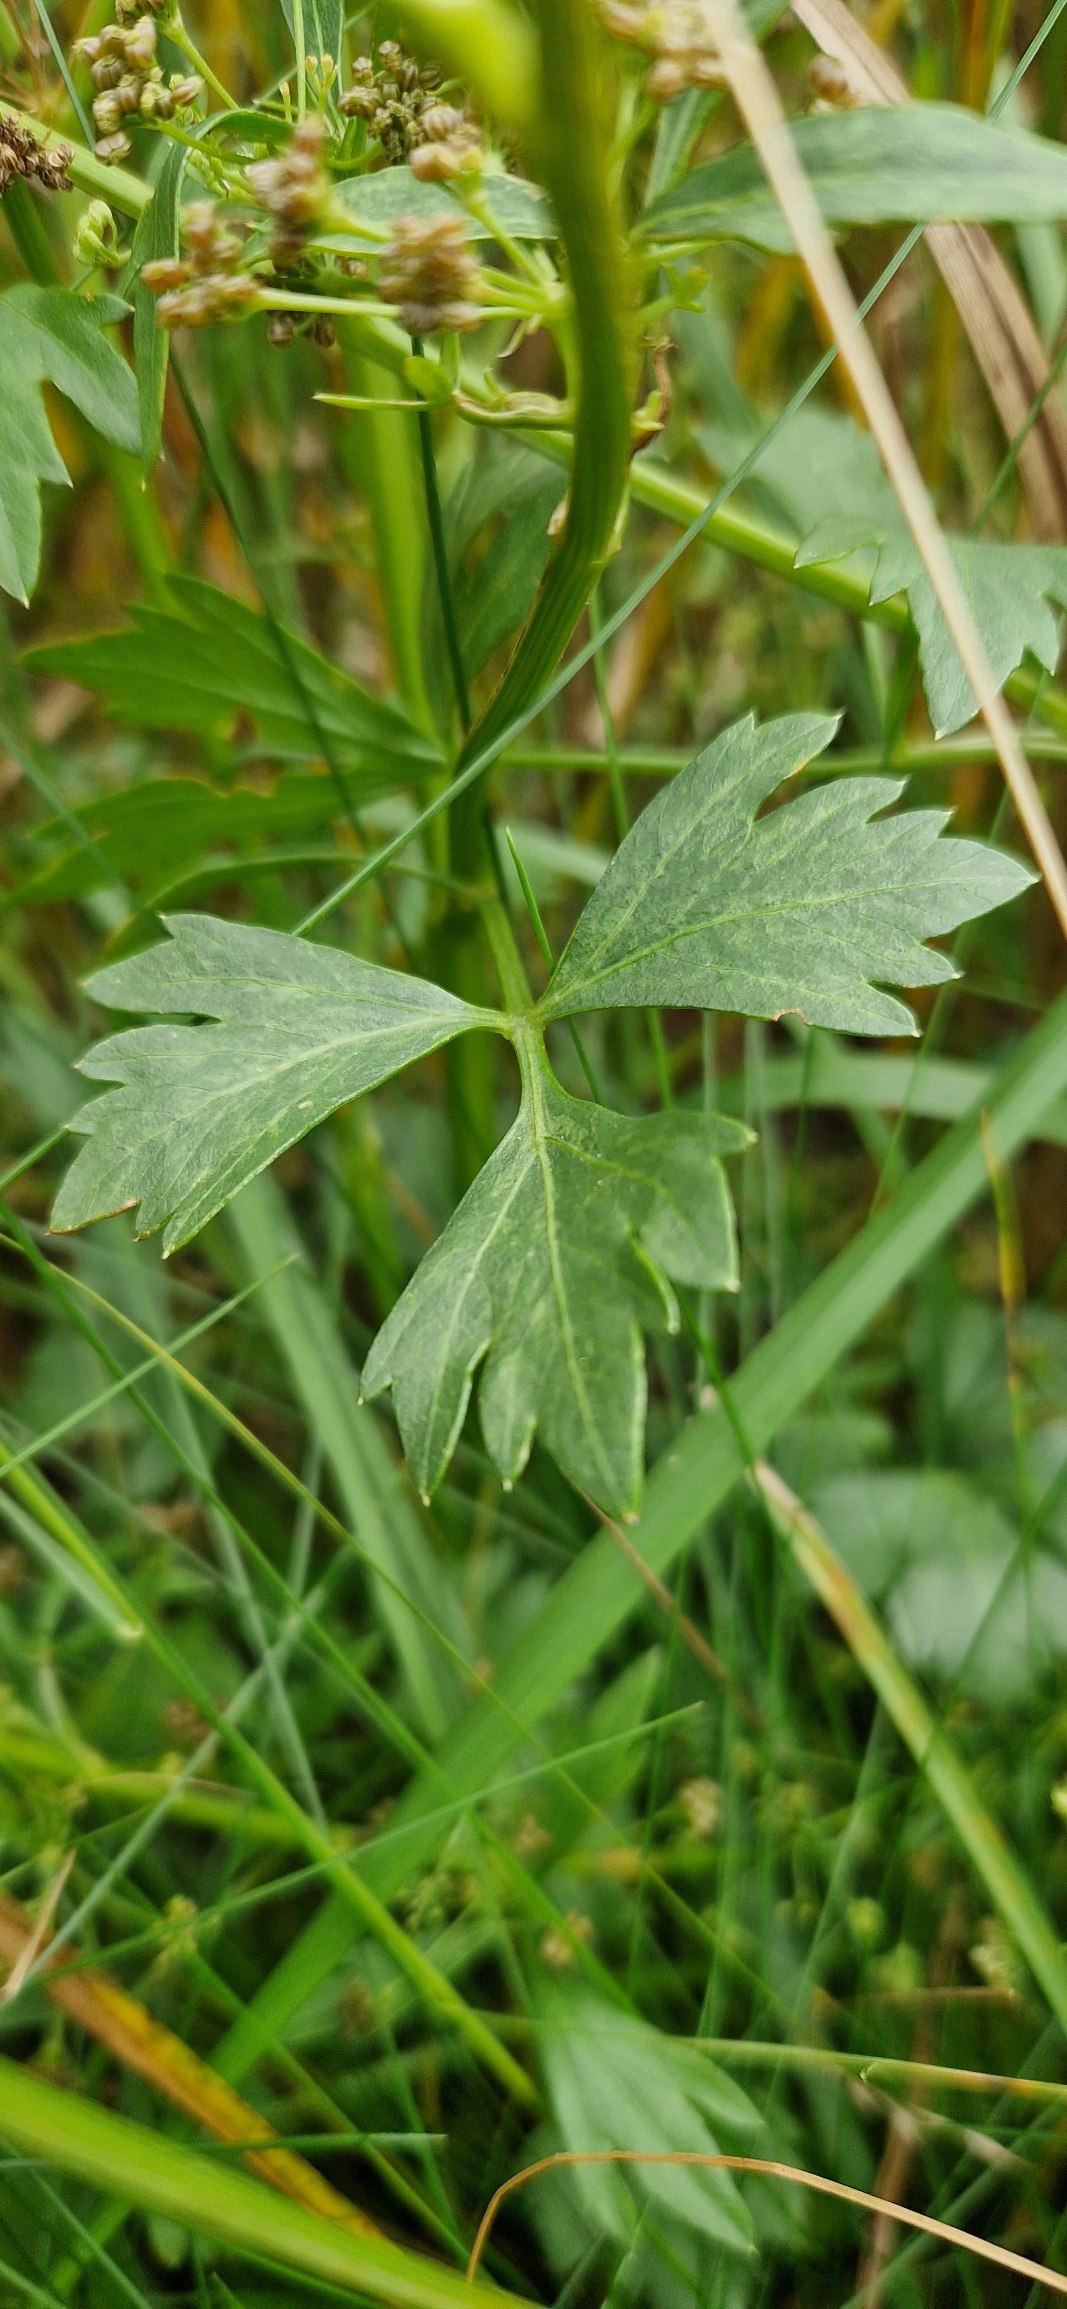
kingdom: Plantae
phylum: Tracheophyta
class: Magnoliopsida
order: Apiales
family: Apiaceae
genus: Apium
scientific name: Apium graveolens
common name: Vild selleri
